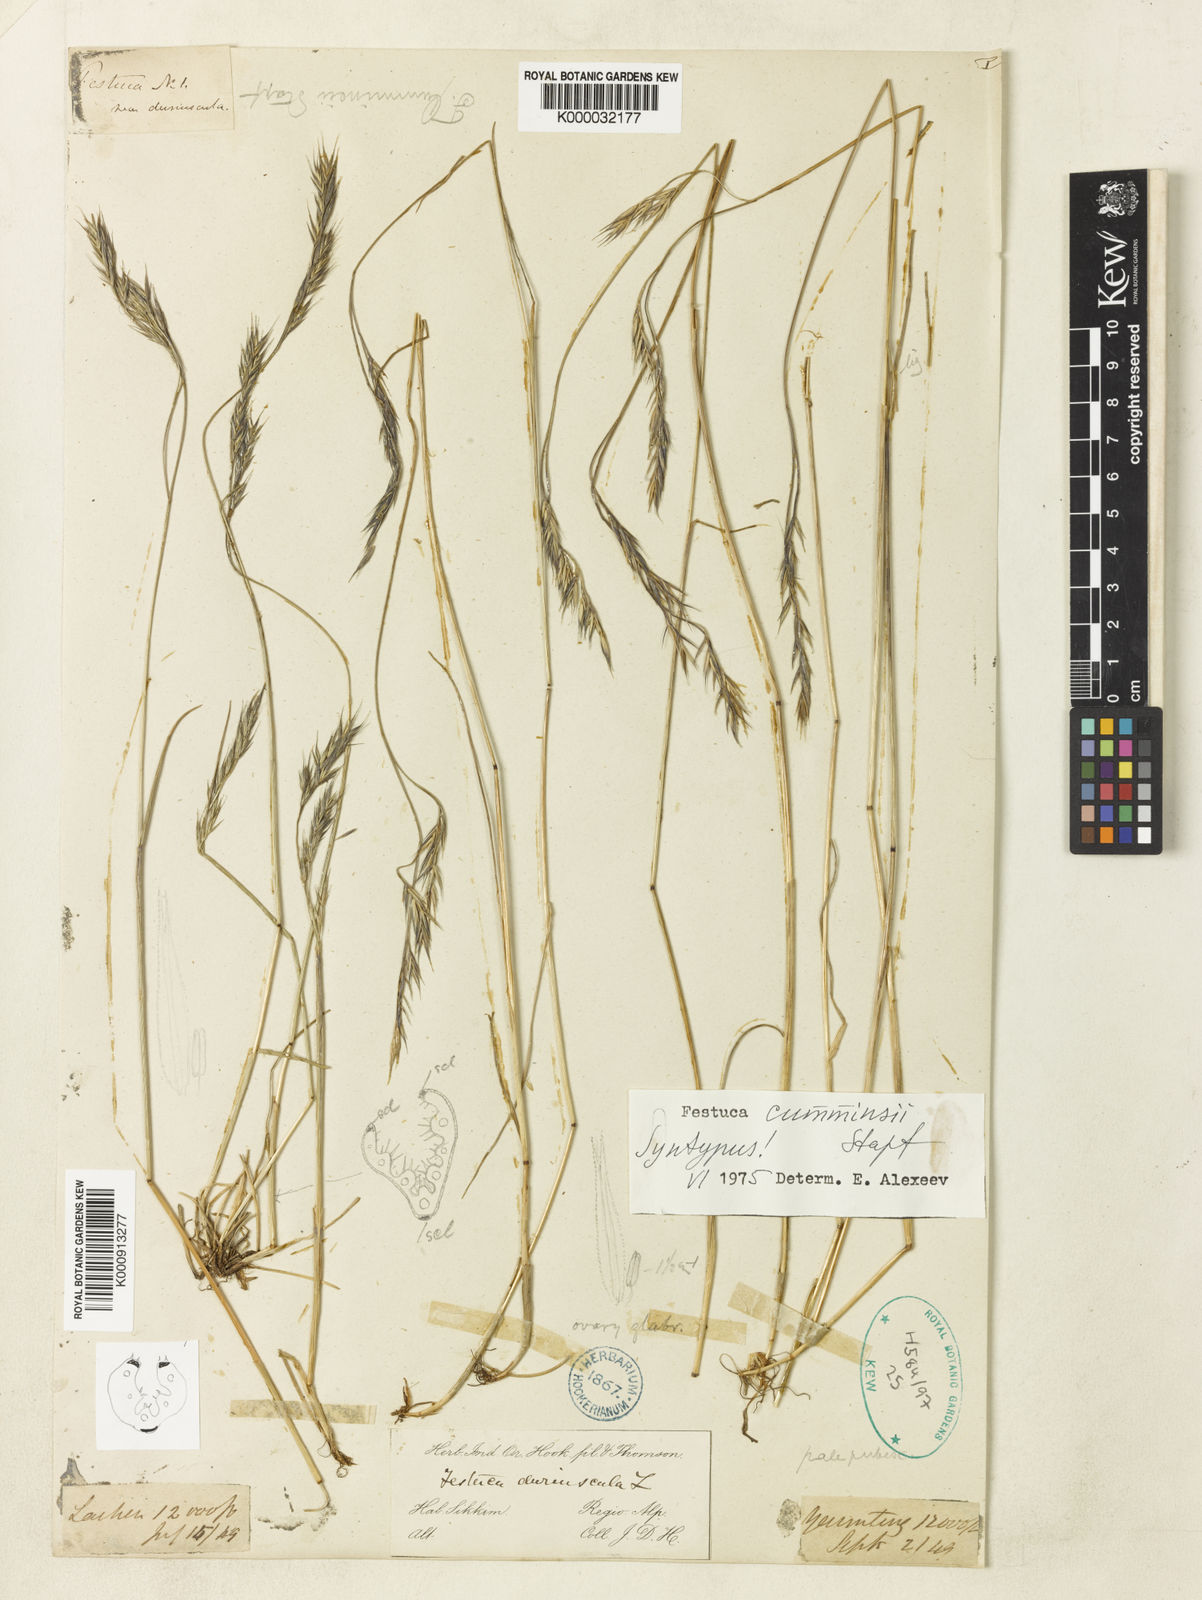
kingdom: Plantae
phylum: Tracheophyta
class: Liliopsida
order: Poales
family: Poaceae
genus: Festuca
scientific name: Festuca cumminsii
